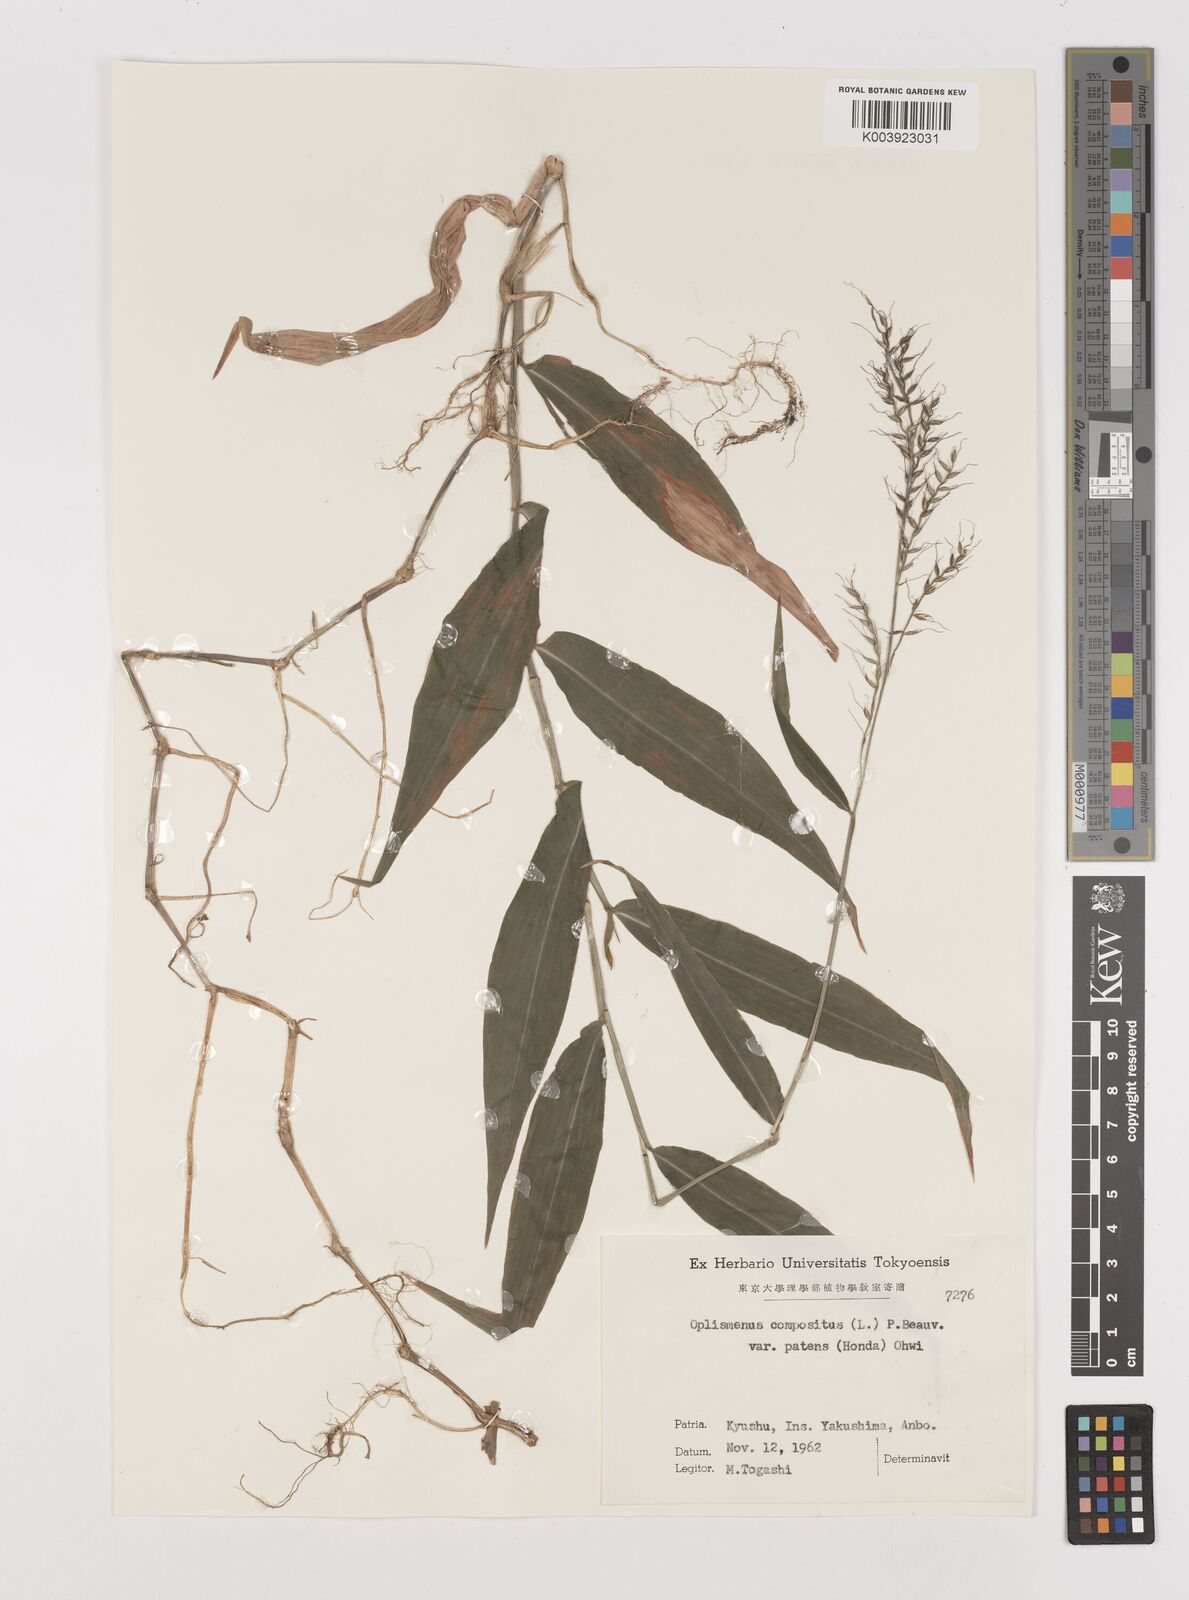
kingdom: Plantae
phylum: Tracheophyta
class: Liliopsida
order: Poales
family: Poaceae
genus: Oplismenus
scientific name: Oplismenus compositus
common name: Running mountain grass
